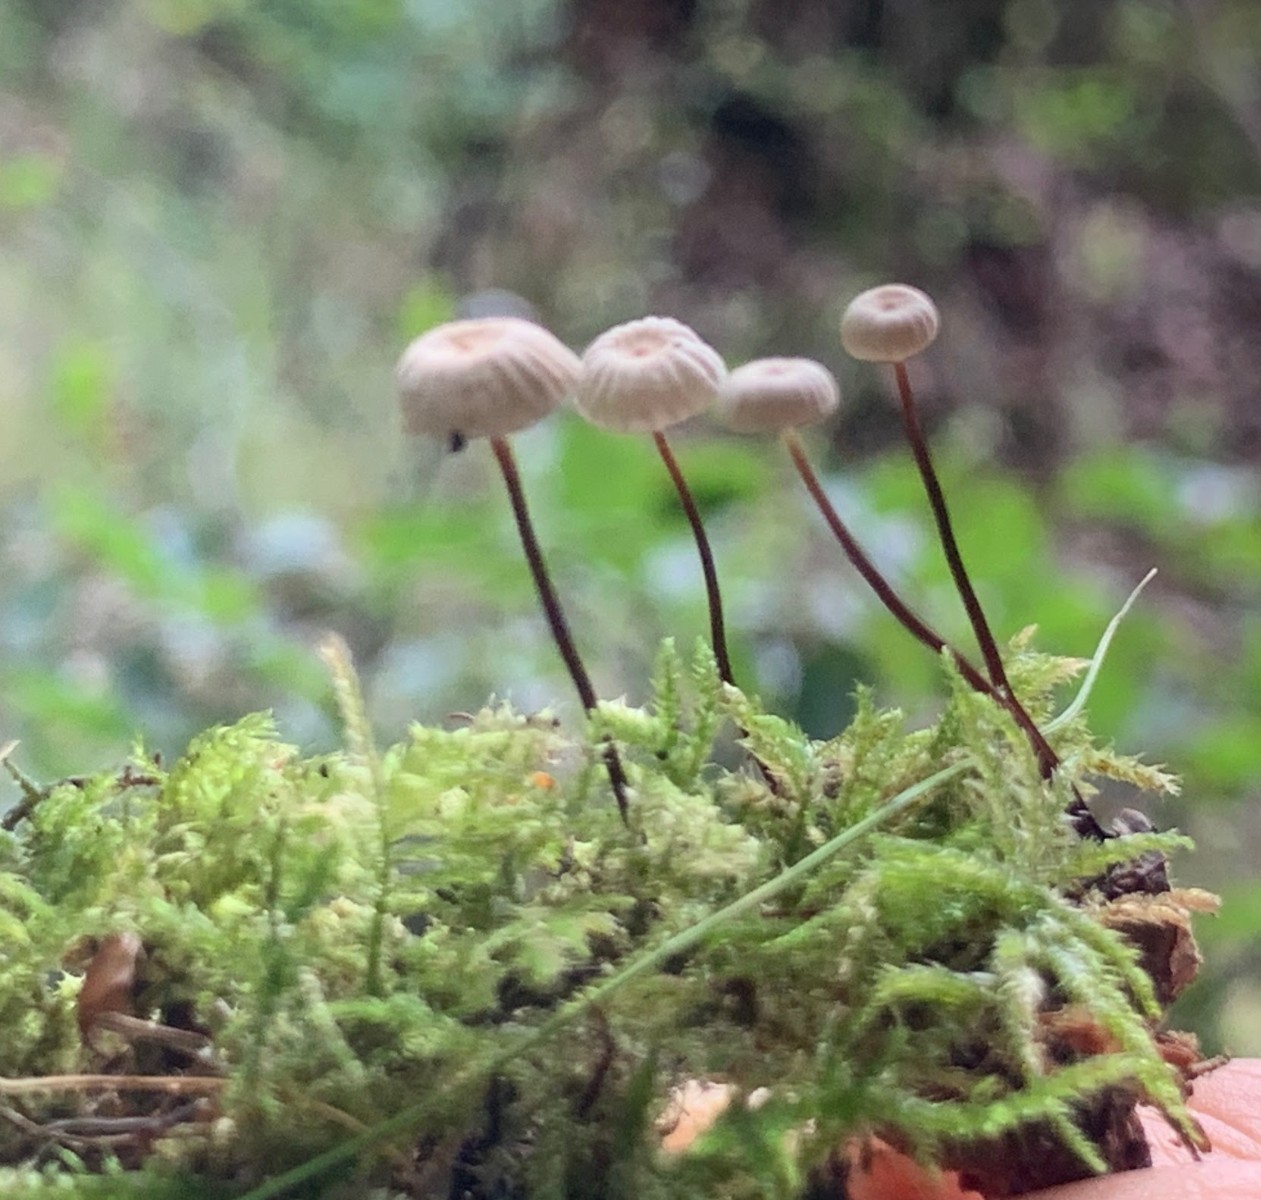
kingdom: Fungi
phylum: Basidiomycota
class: Agaricomycetes
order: Agaricales
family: Marasmiaceae
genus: Marasmius
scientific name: Marasmius rotula
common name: hjul-bruskhat
